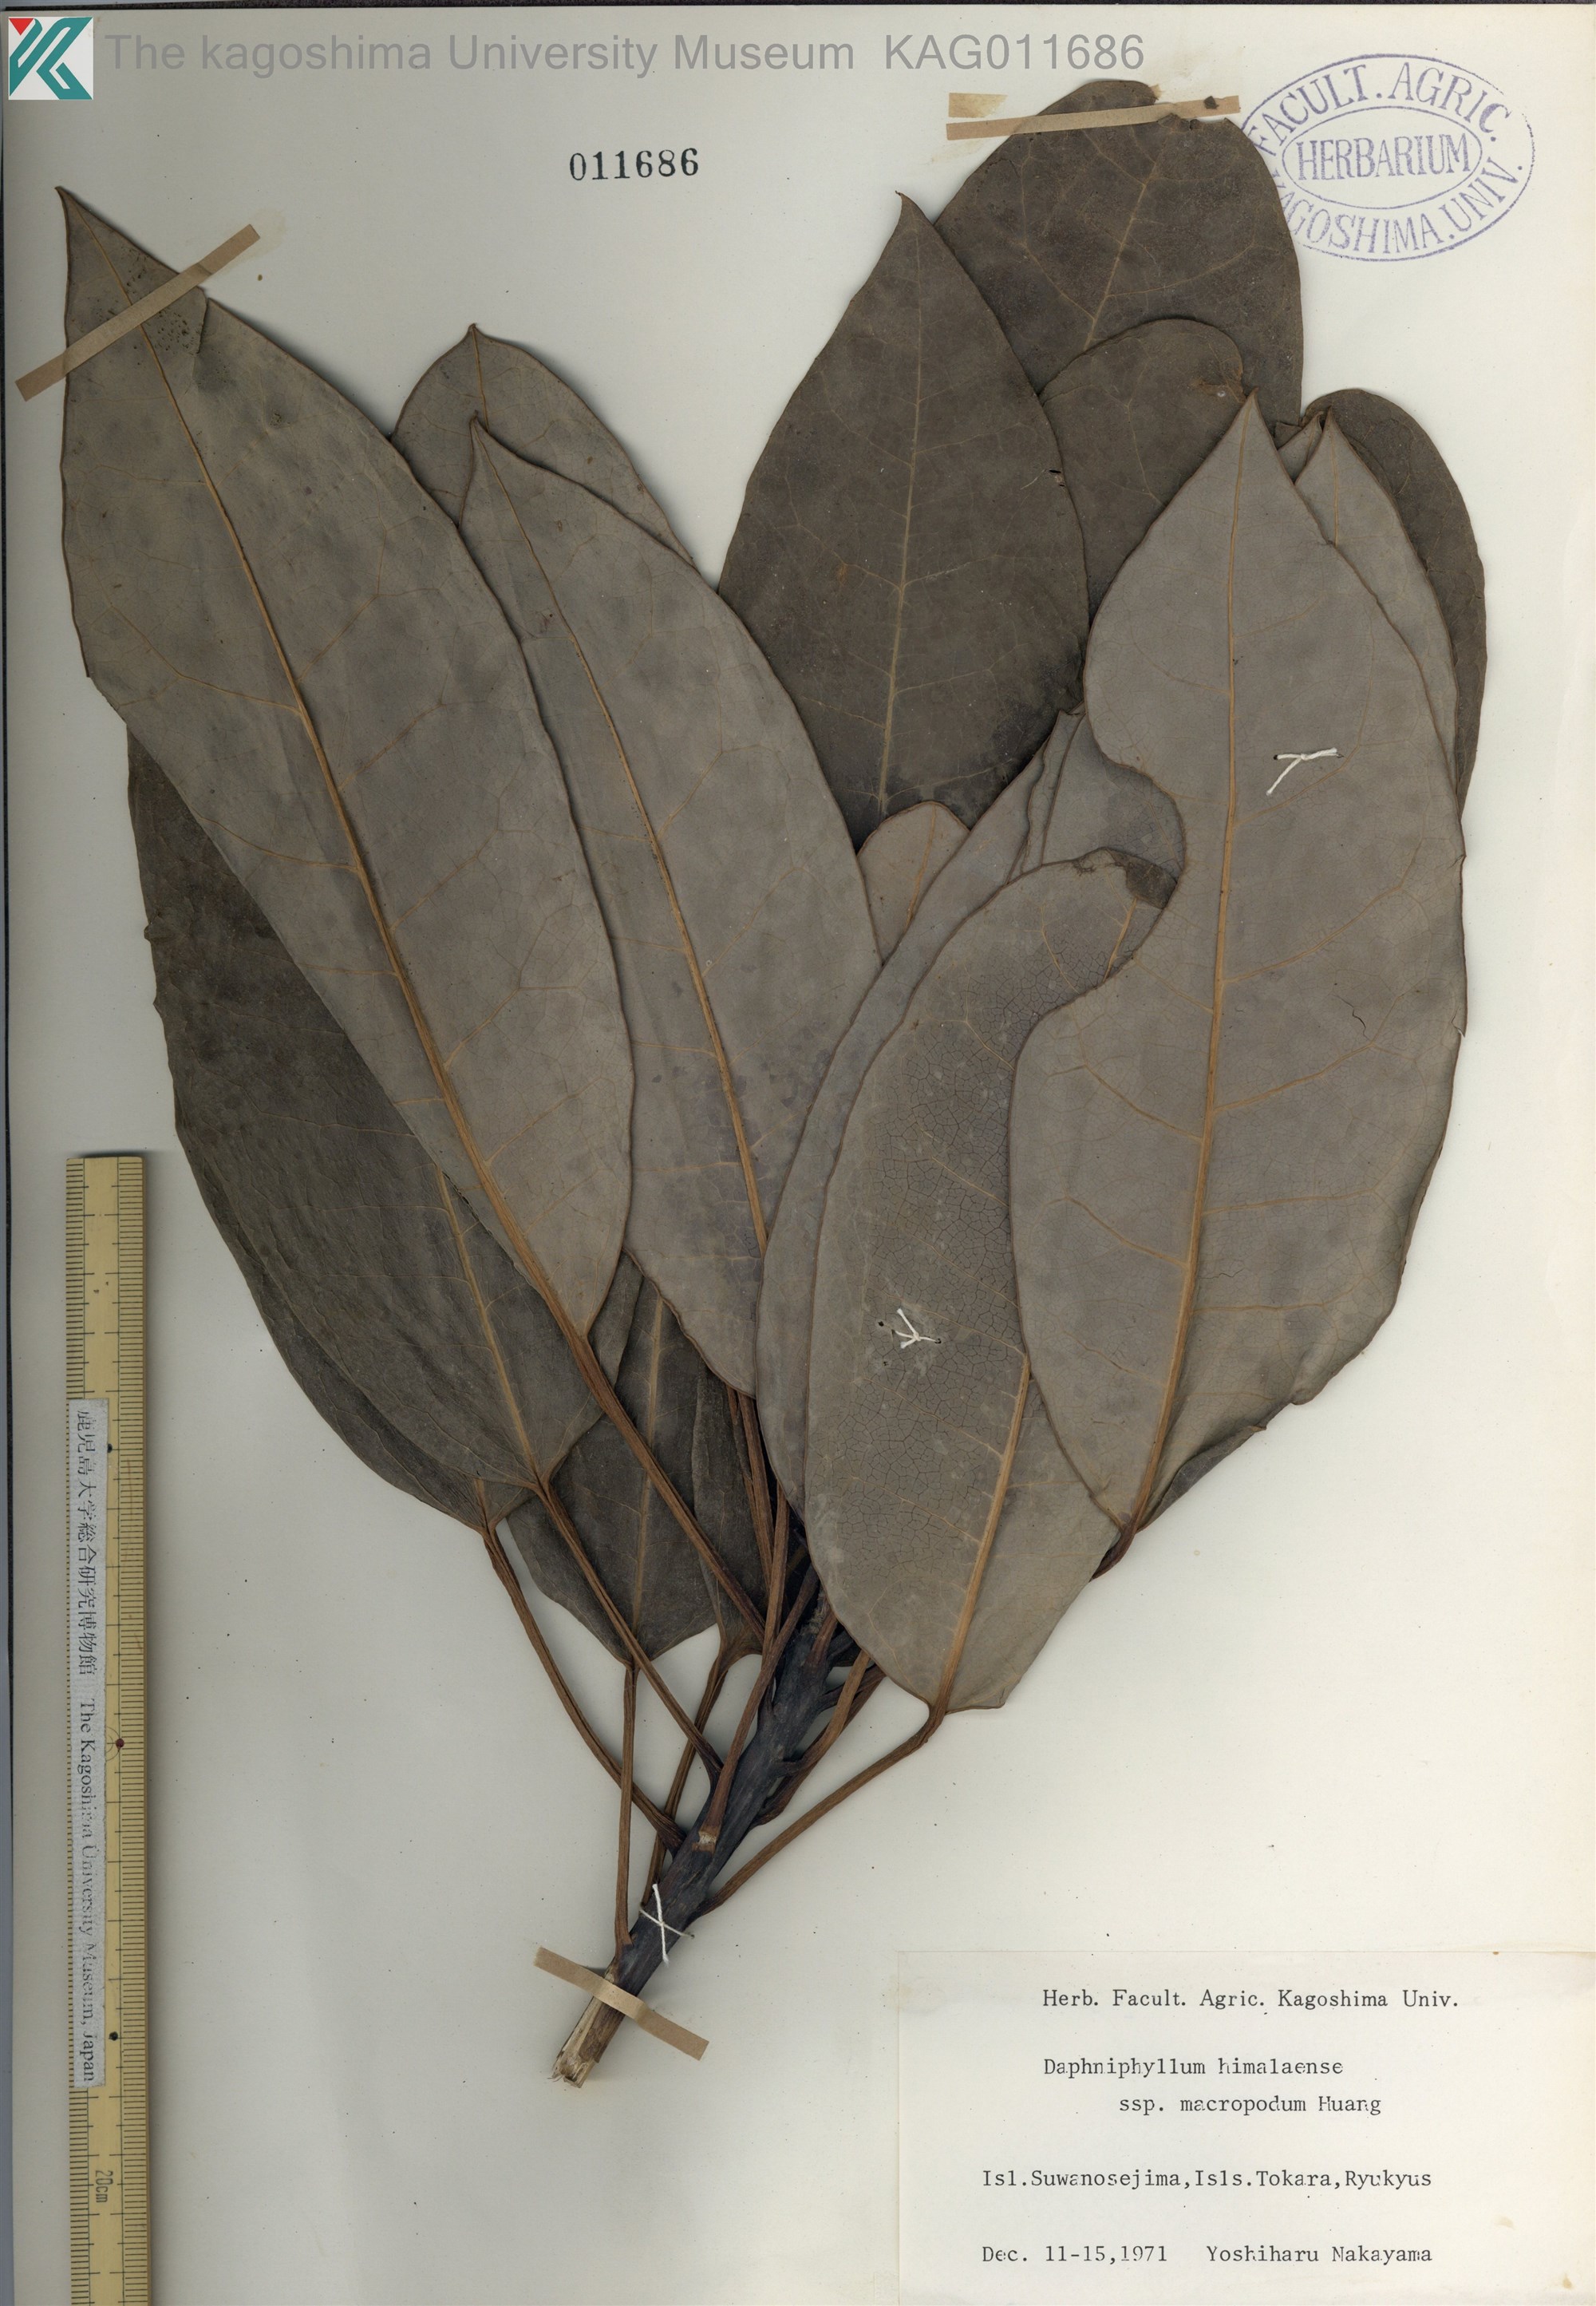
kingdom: Plantae
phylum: Tracheophyta
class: Magnoliopsida
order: Saxifragales
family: Daphniphyllaceae
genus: Daphniphyllum
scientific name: Daphniphyllum macropodum
